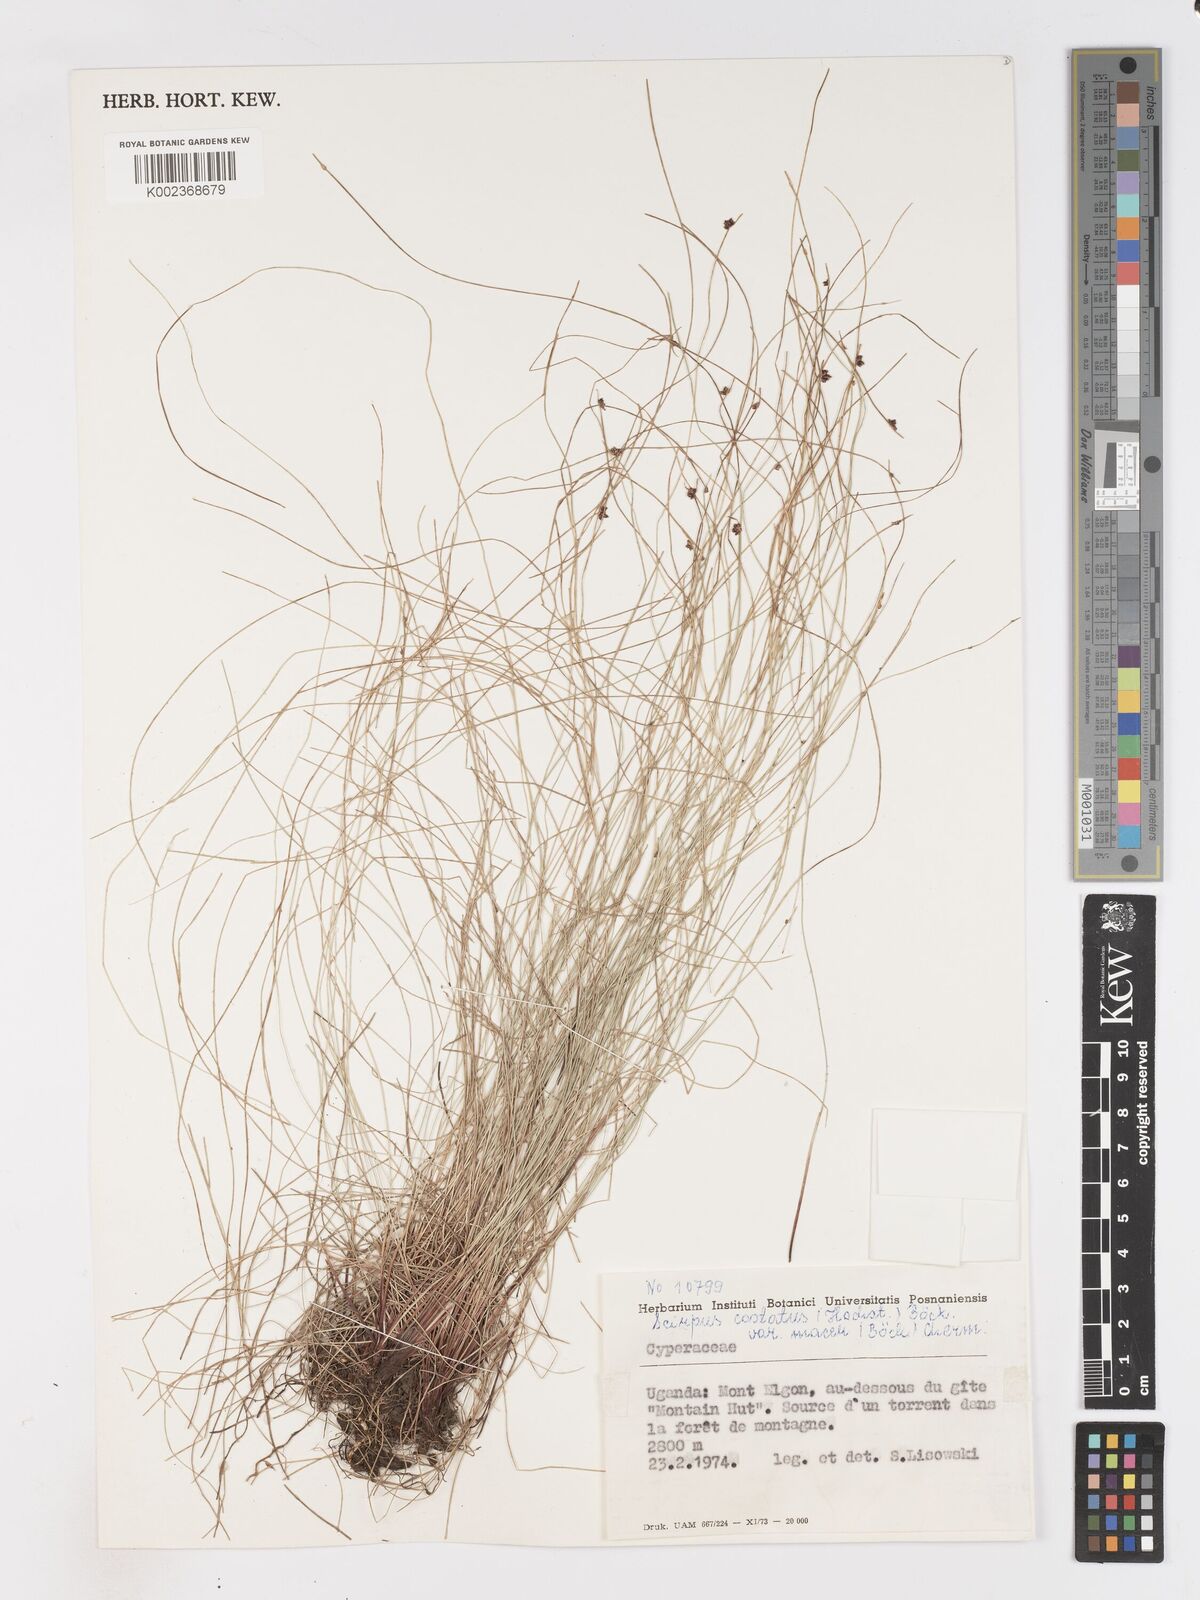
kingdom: Plantae
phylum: Tracheophyta
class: Liliopsida
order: Poales
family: Cyperaceae
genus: Isolepis
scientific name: Isolepis costata
